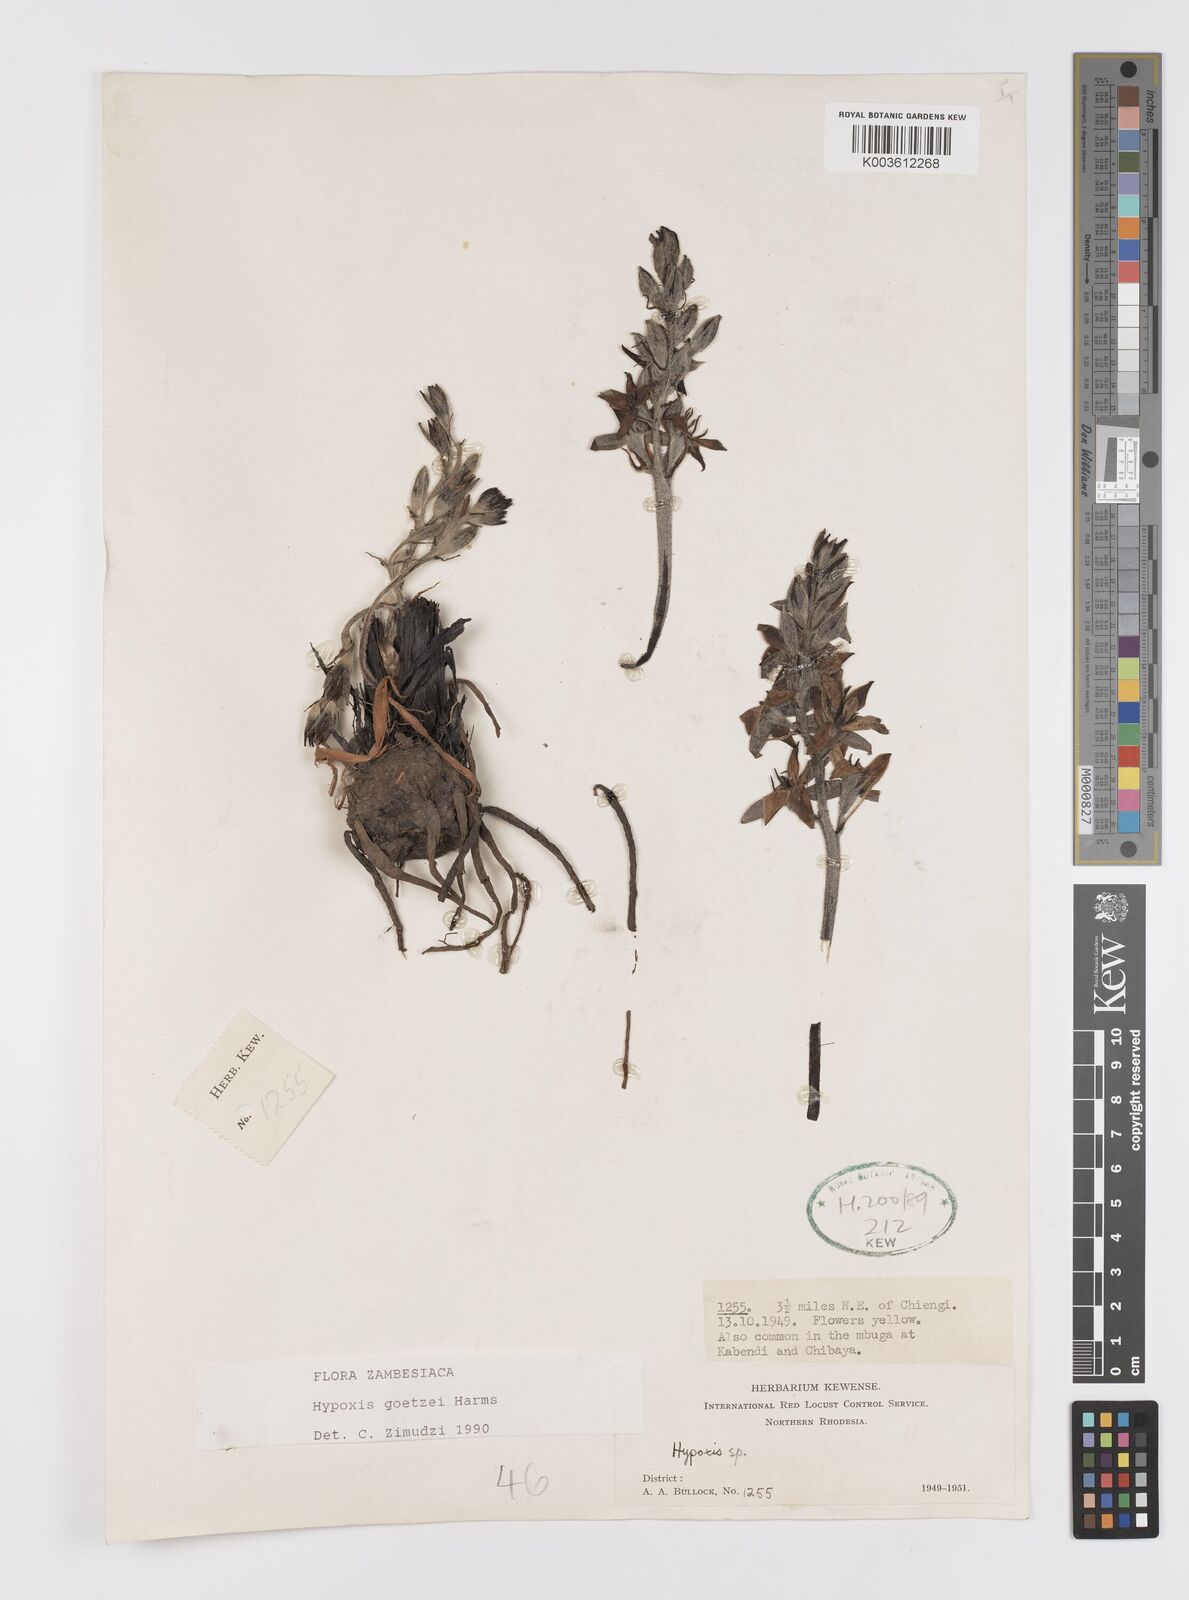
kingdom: Plantae
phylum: Tracheophyta
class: Liliopsida
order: Asparagales
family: Hypoxidaceae
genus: Hypoxis
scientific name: Hypoxis goetzei
